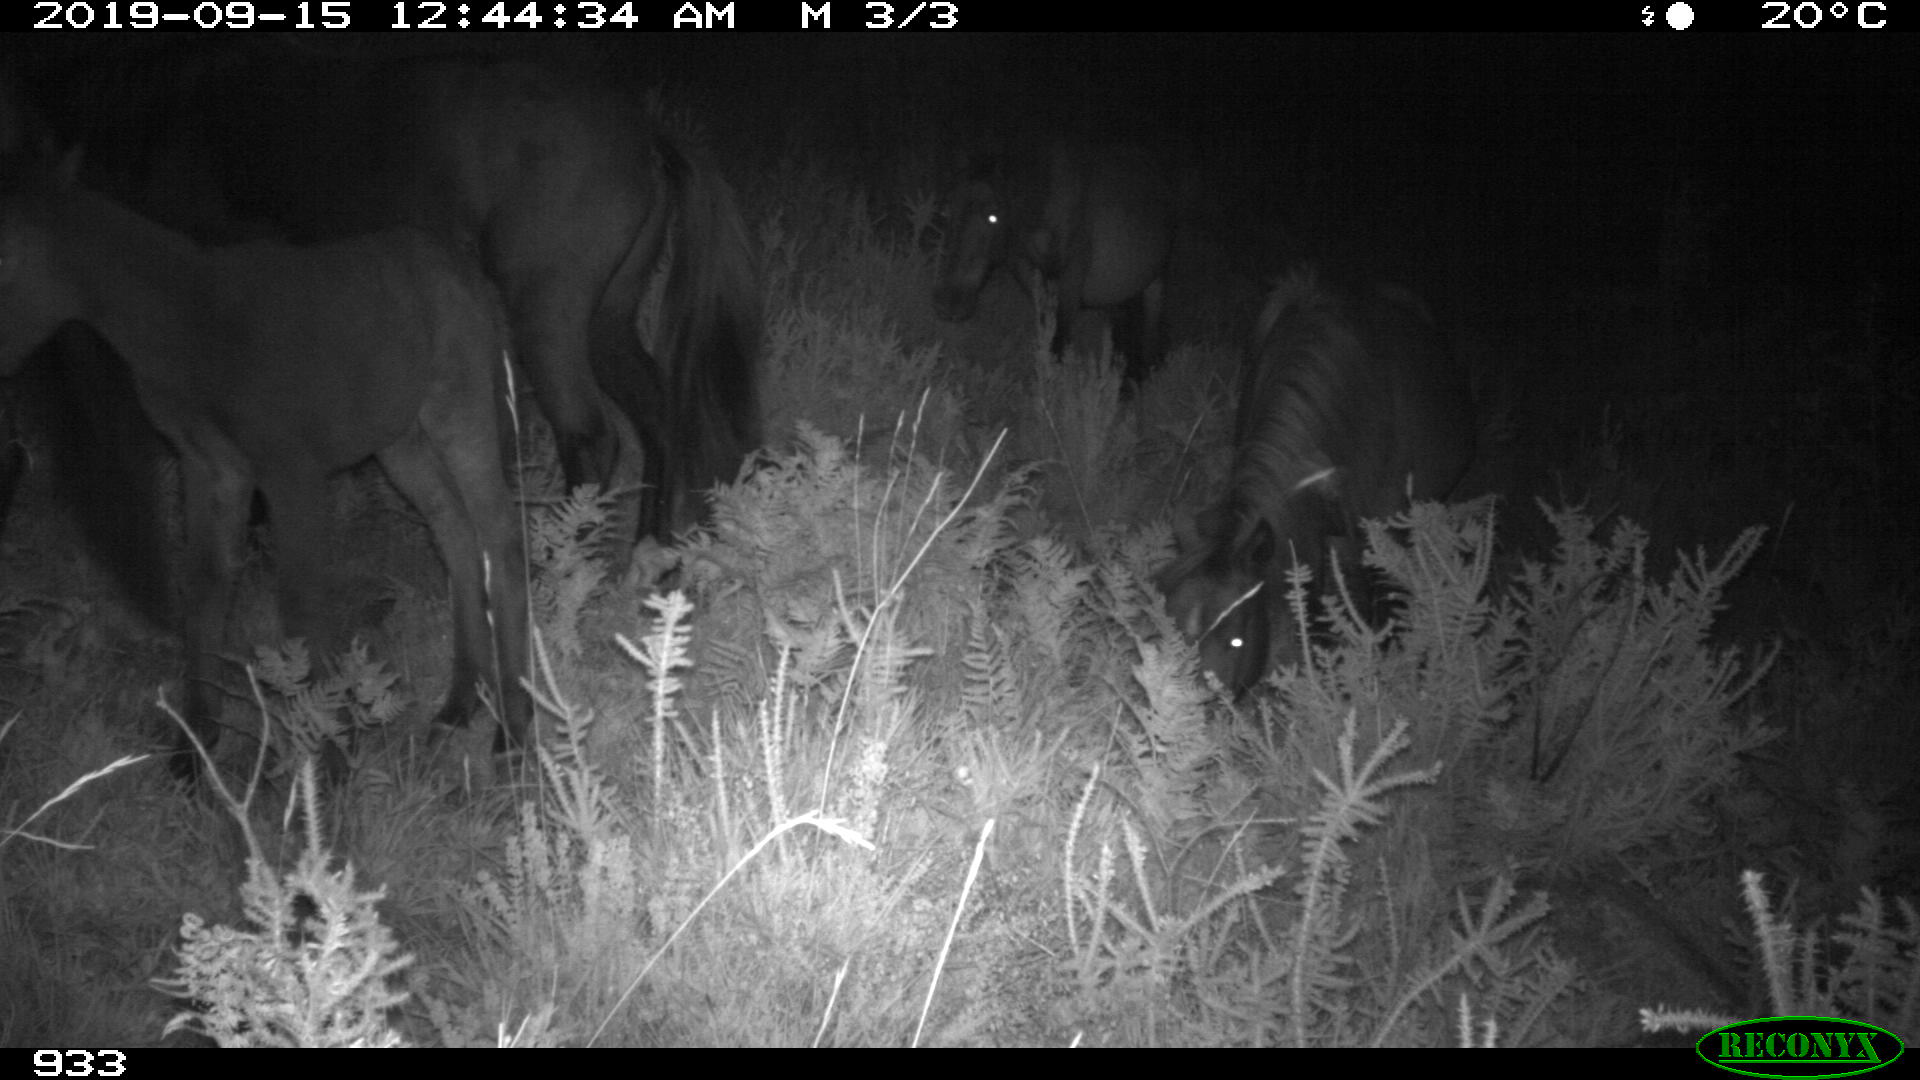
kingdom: Animalia
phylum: Chordata
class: Mammalia
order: Perissodactyla
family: Equidae
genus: Equus
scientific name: Equus caballus
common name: Horse
